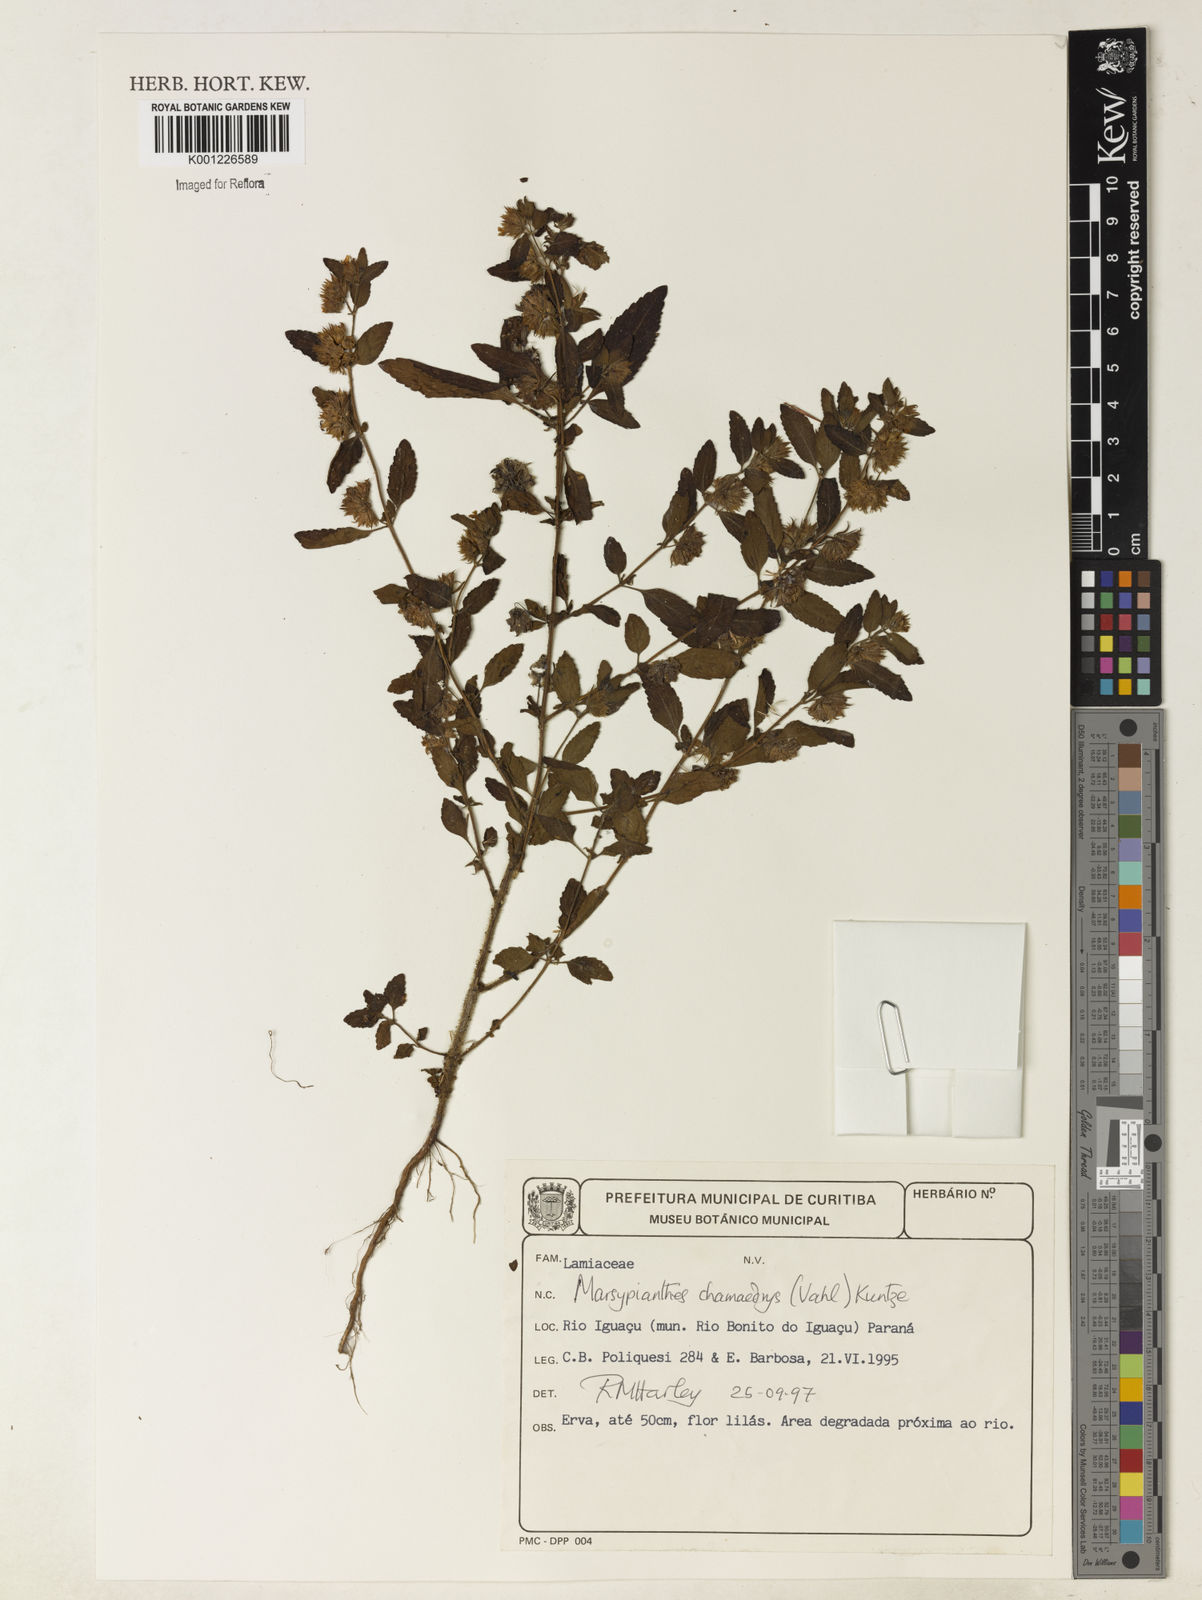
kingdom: Plantae
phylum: Tracheophyta
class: Magnoliopsida
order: Lamiales
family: Lamiaceae
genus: Marsypianthes
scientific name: Marsypianthes chamaedrys
